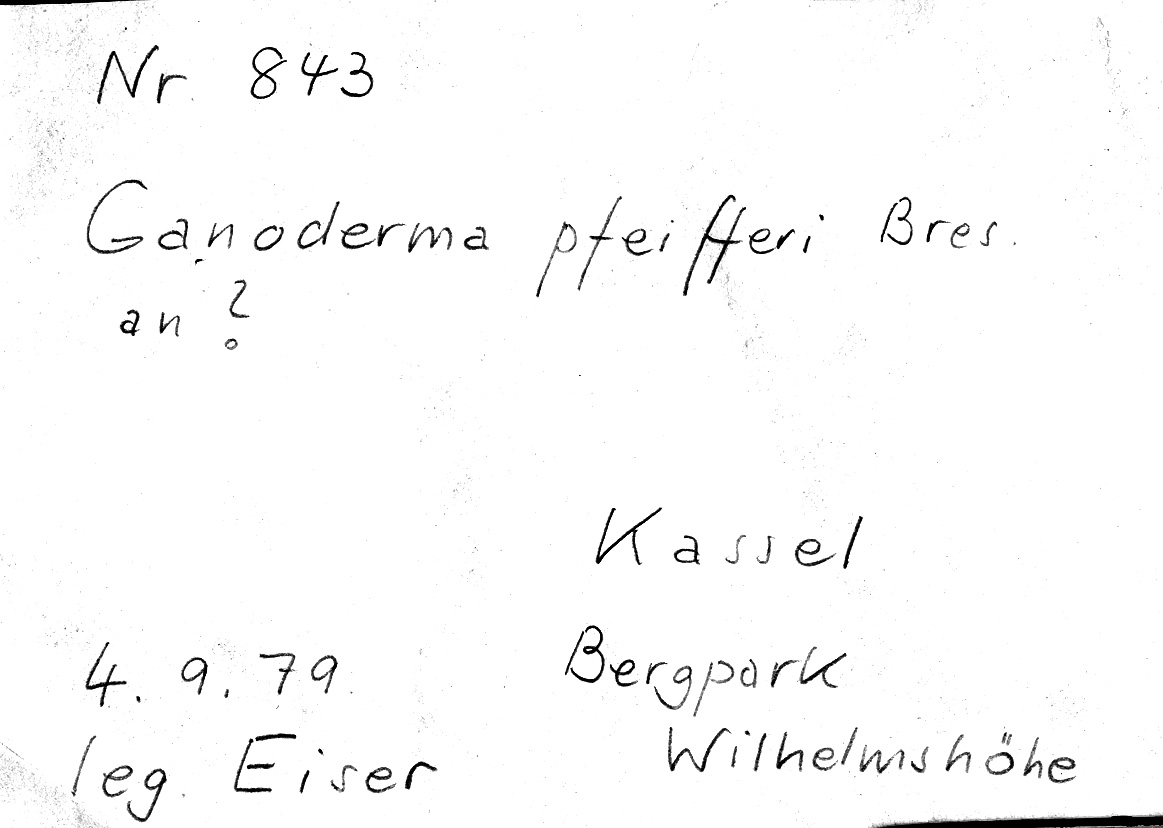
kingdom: Fungi
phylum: Basidiomycota
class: Agaricomycetes
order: Polyporales
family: Polyporaceae
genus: Ganoderma
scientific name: Ganoderma pfeifferi
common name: Beeswax bracket
